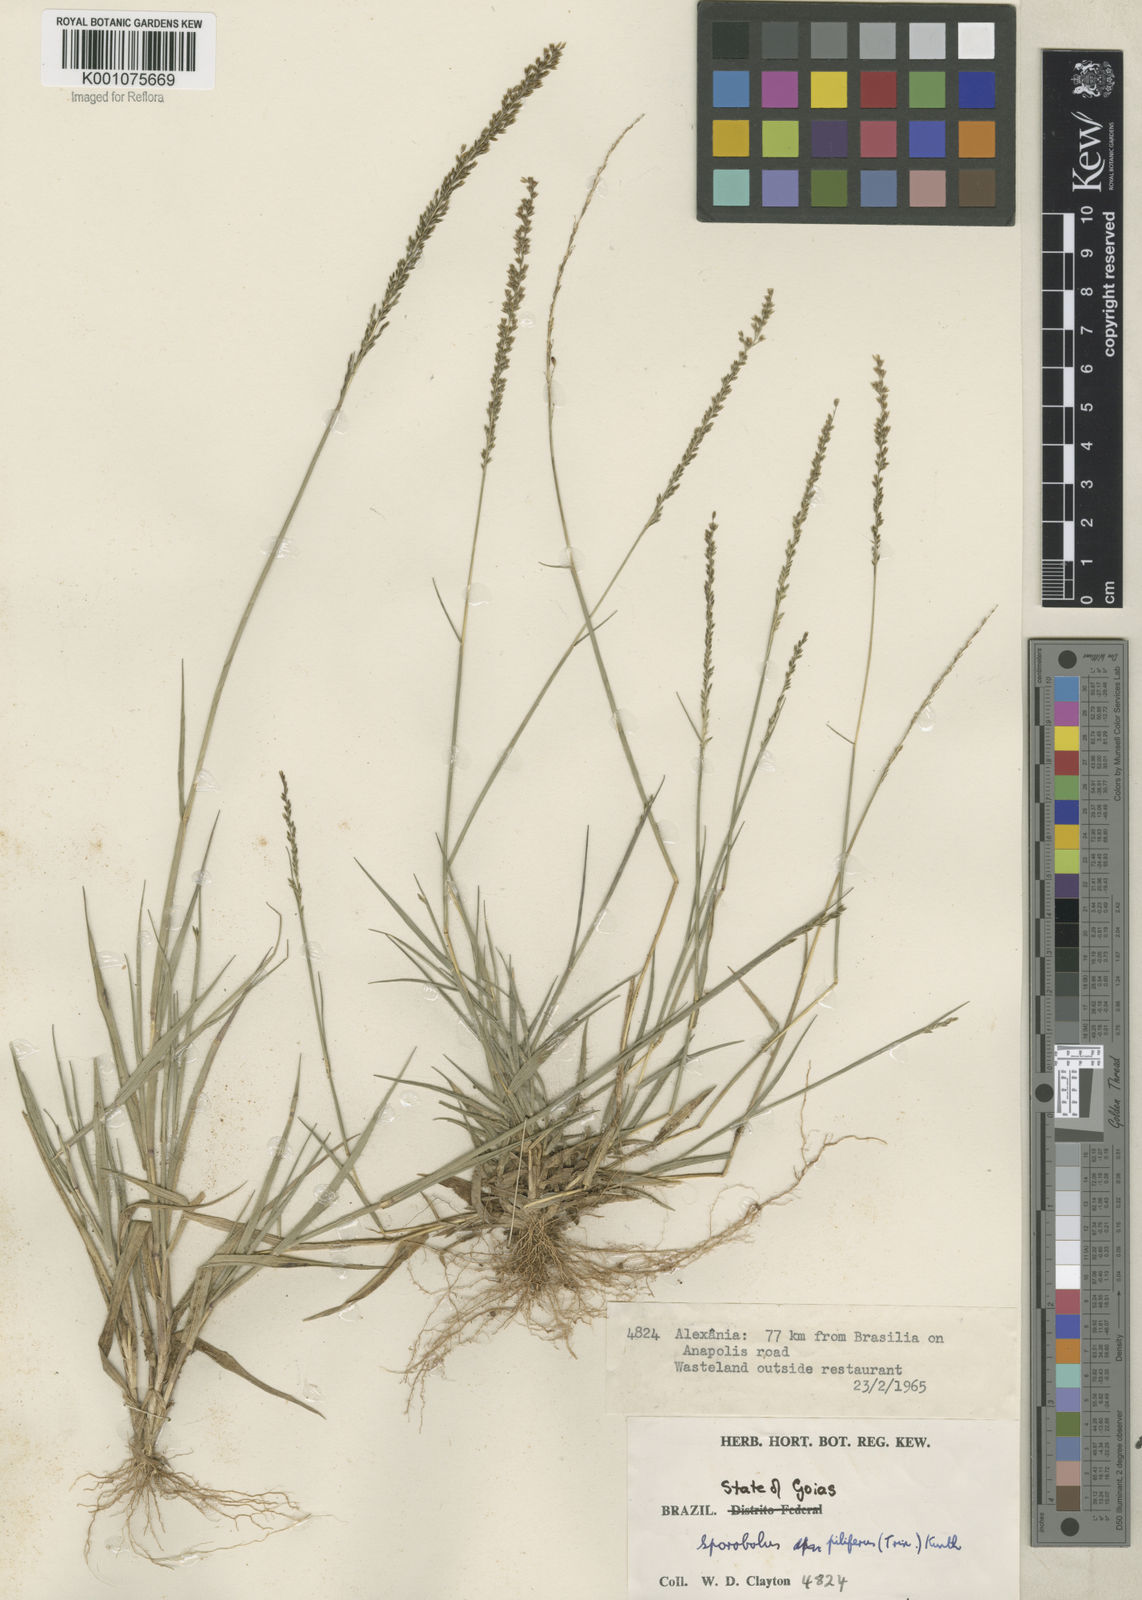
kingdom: Plantae
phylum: Tracheophyta
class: Liliopsida
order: Poales
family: Poaceae
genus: Sporobolus
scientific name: Sporobolus pilifer
